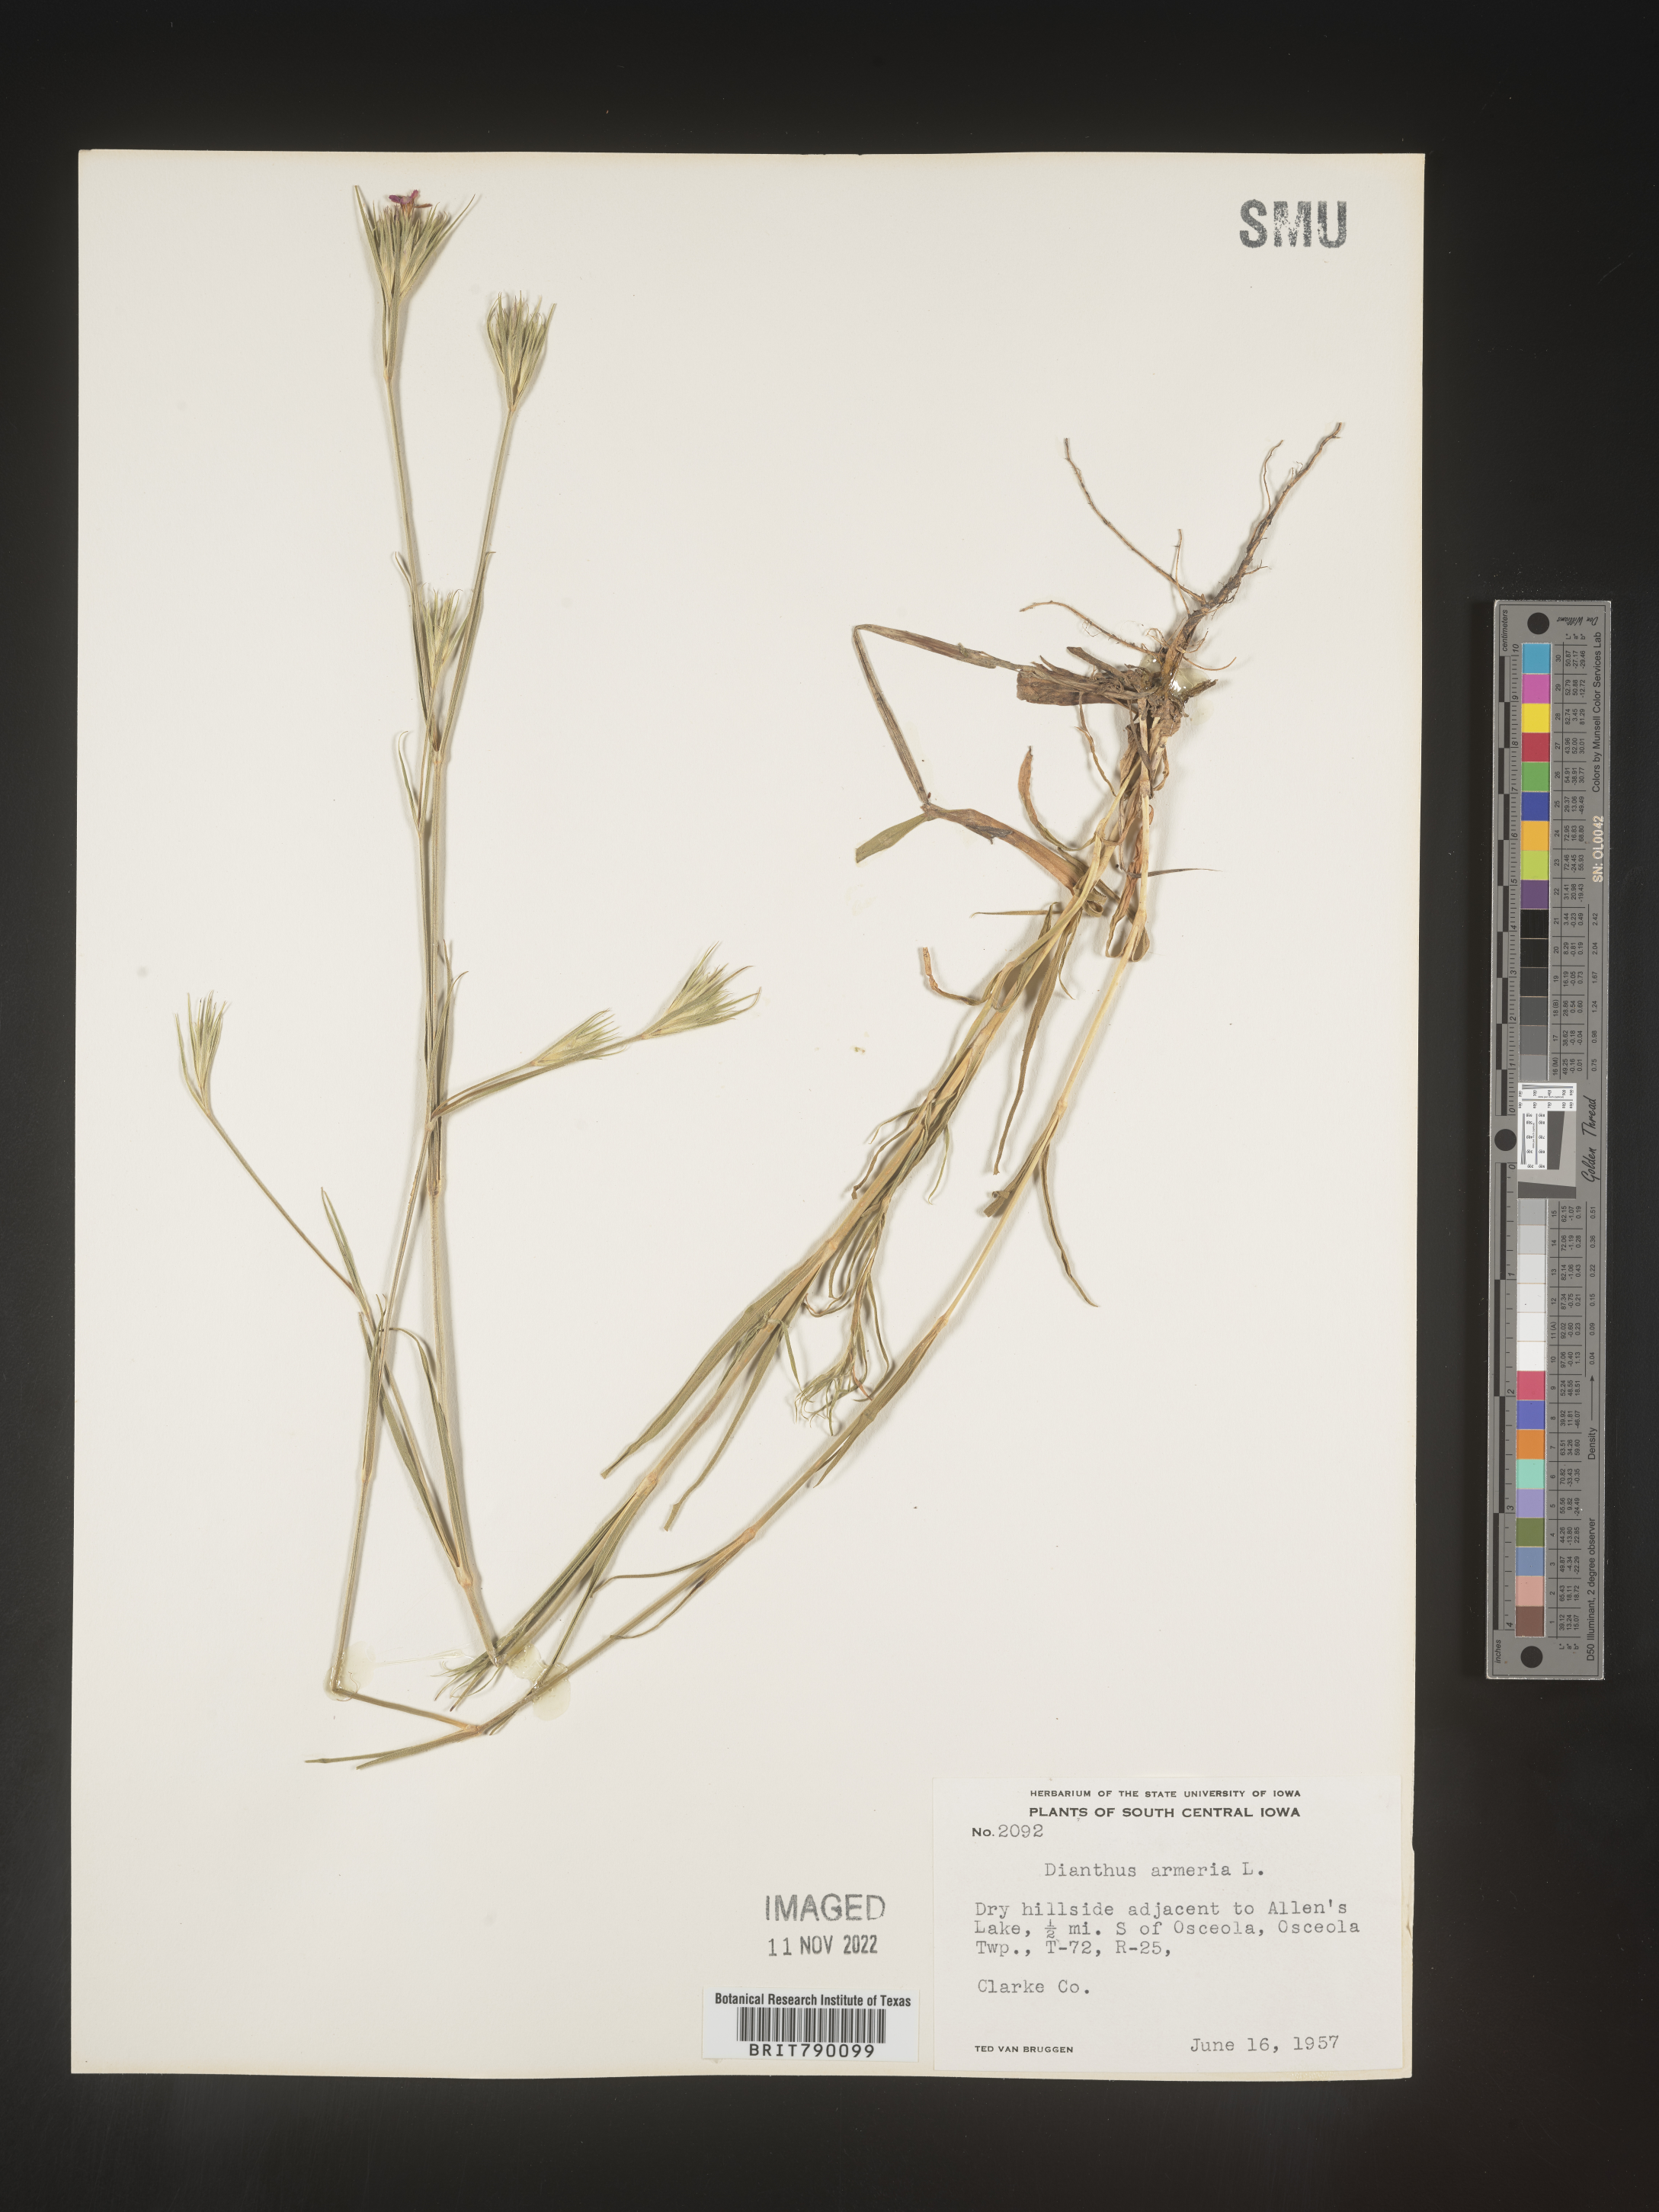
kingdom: Plantae
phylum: Tracheophyta
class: Magnoliopsida
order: Caryophyllales
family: Caryophyllaceae
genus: Dianthus
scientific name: Dianthus armeria
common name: Deptford pink
